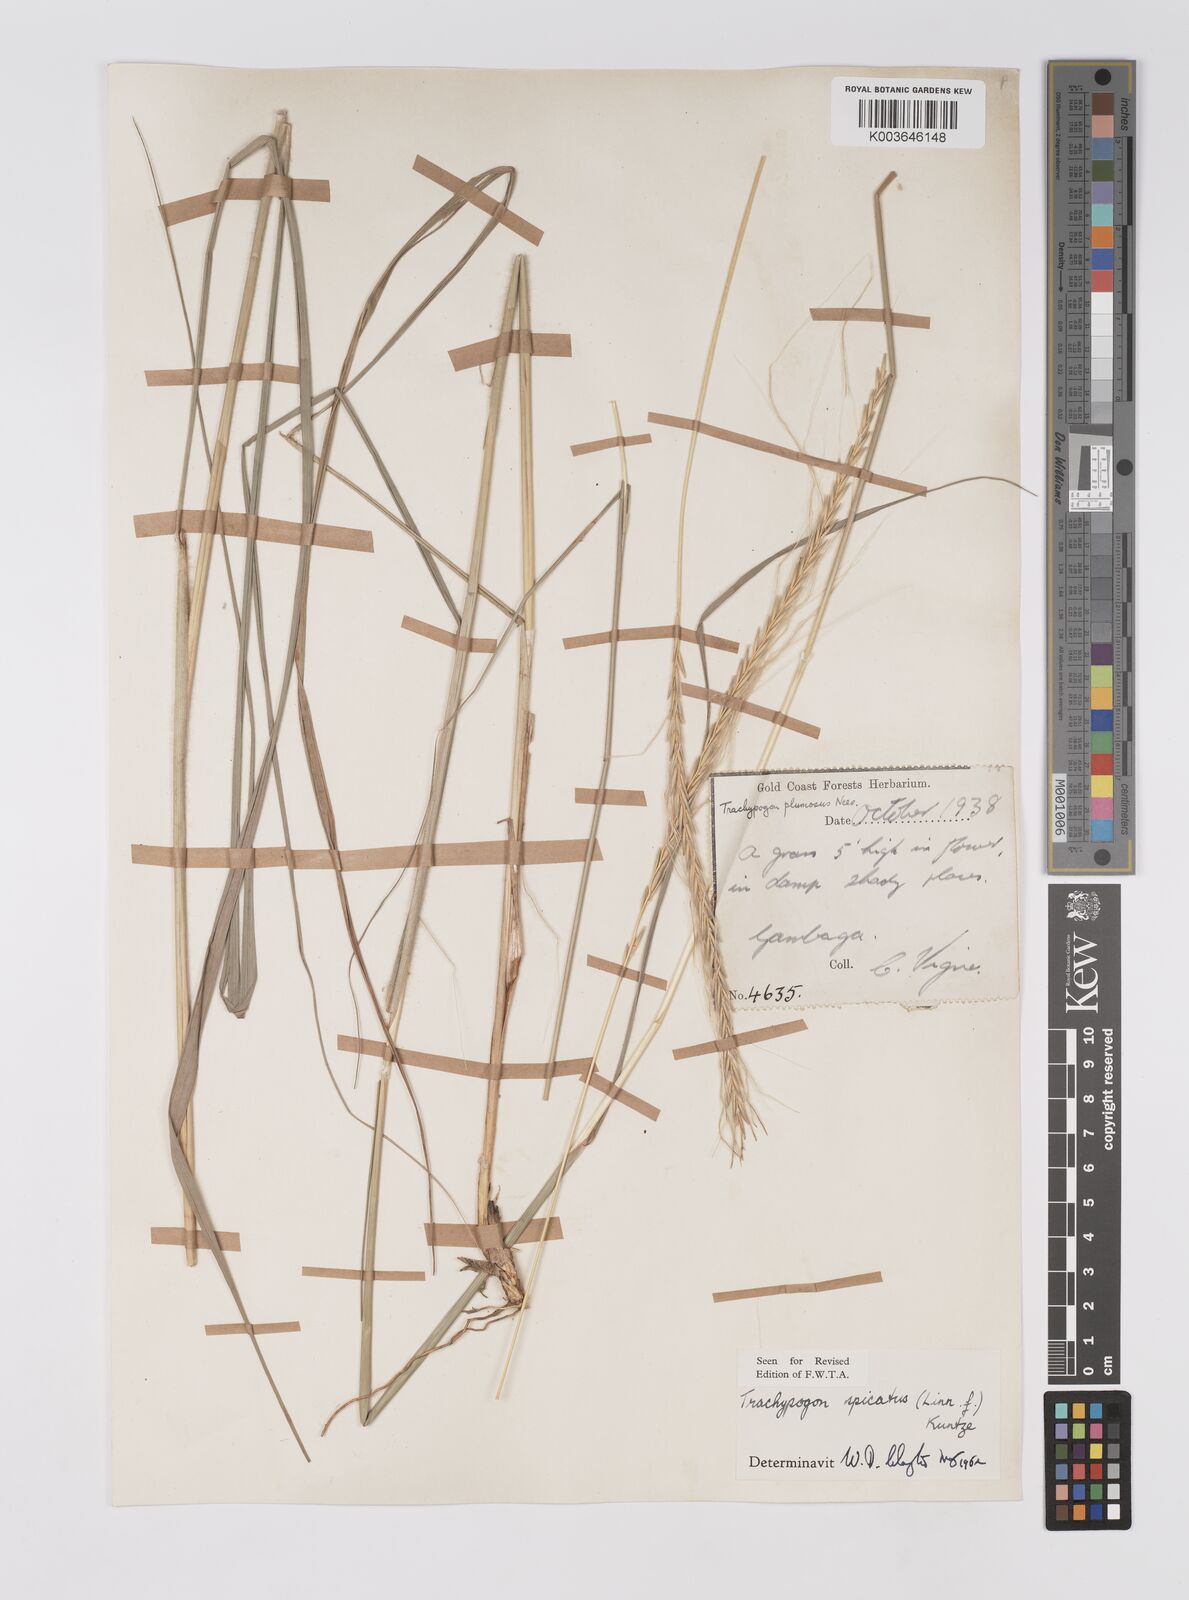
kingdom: Plantae
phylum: Tracheophyta
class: Liliopsida
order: Poales
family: Poaceae
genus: Trachypogon
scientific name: Trachypogon spicatus
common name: Crinkle-awn
